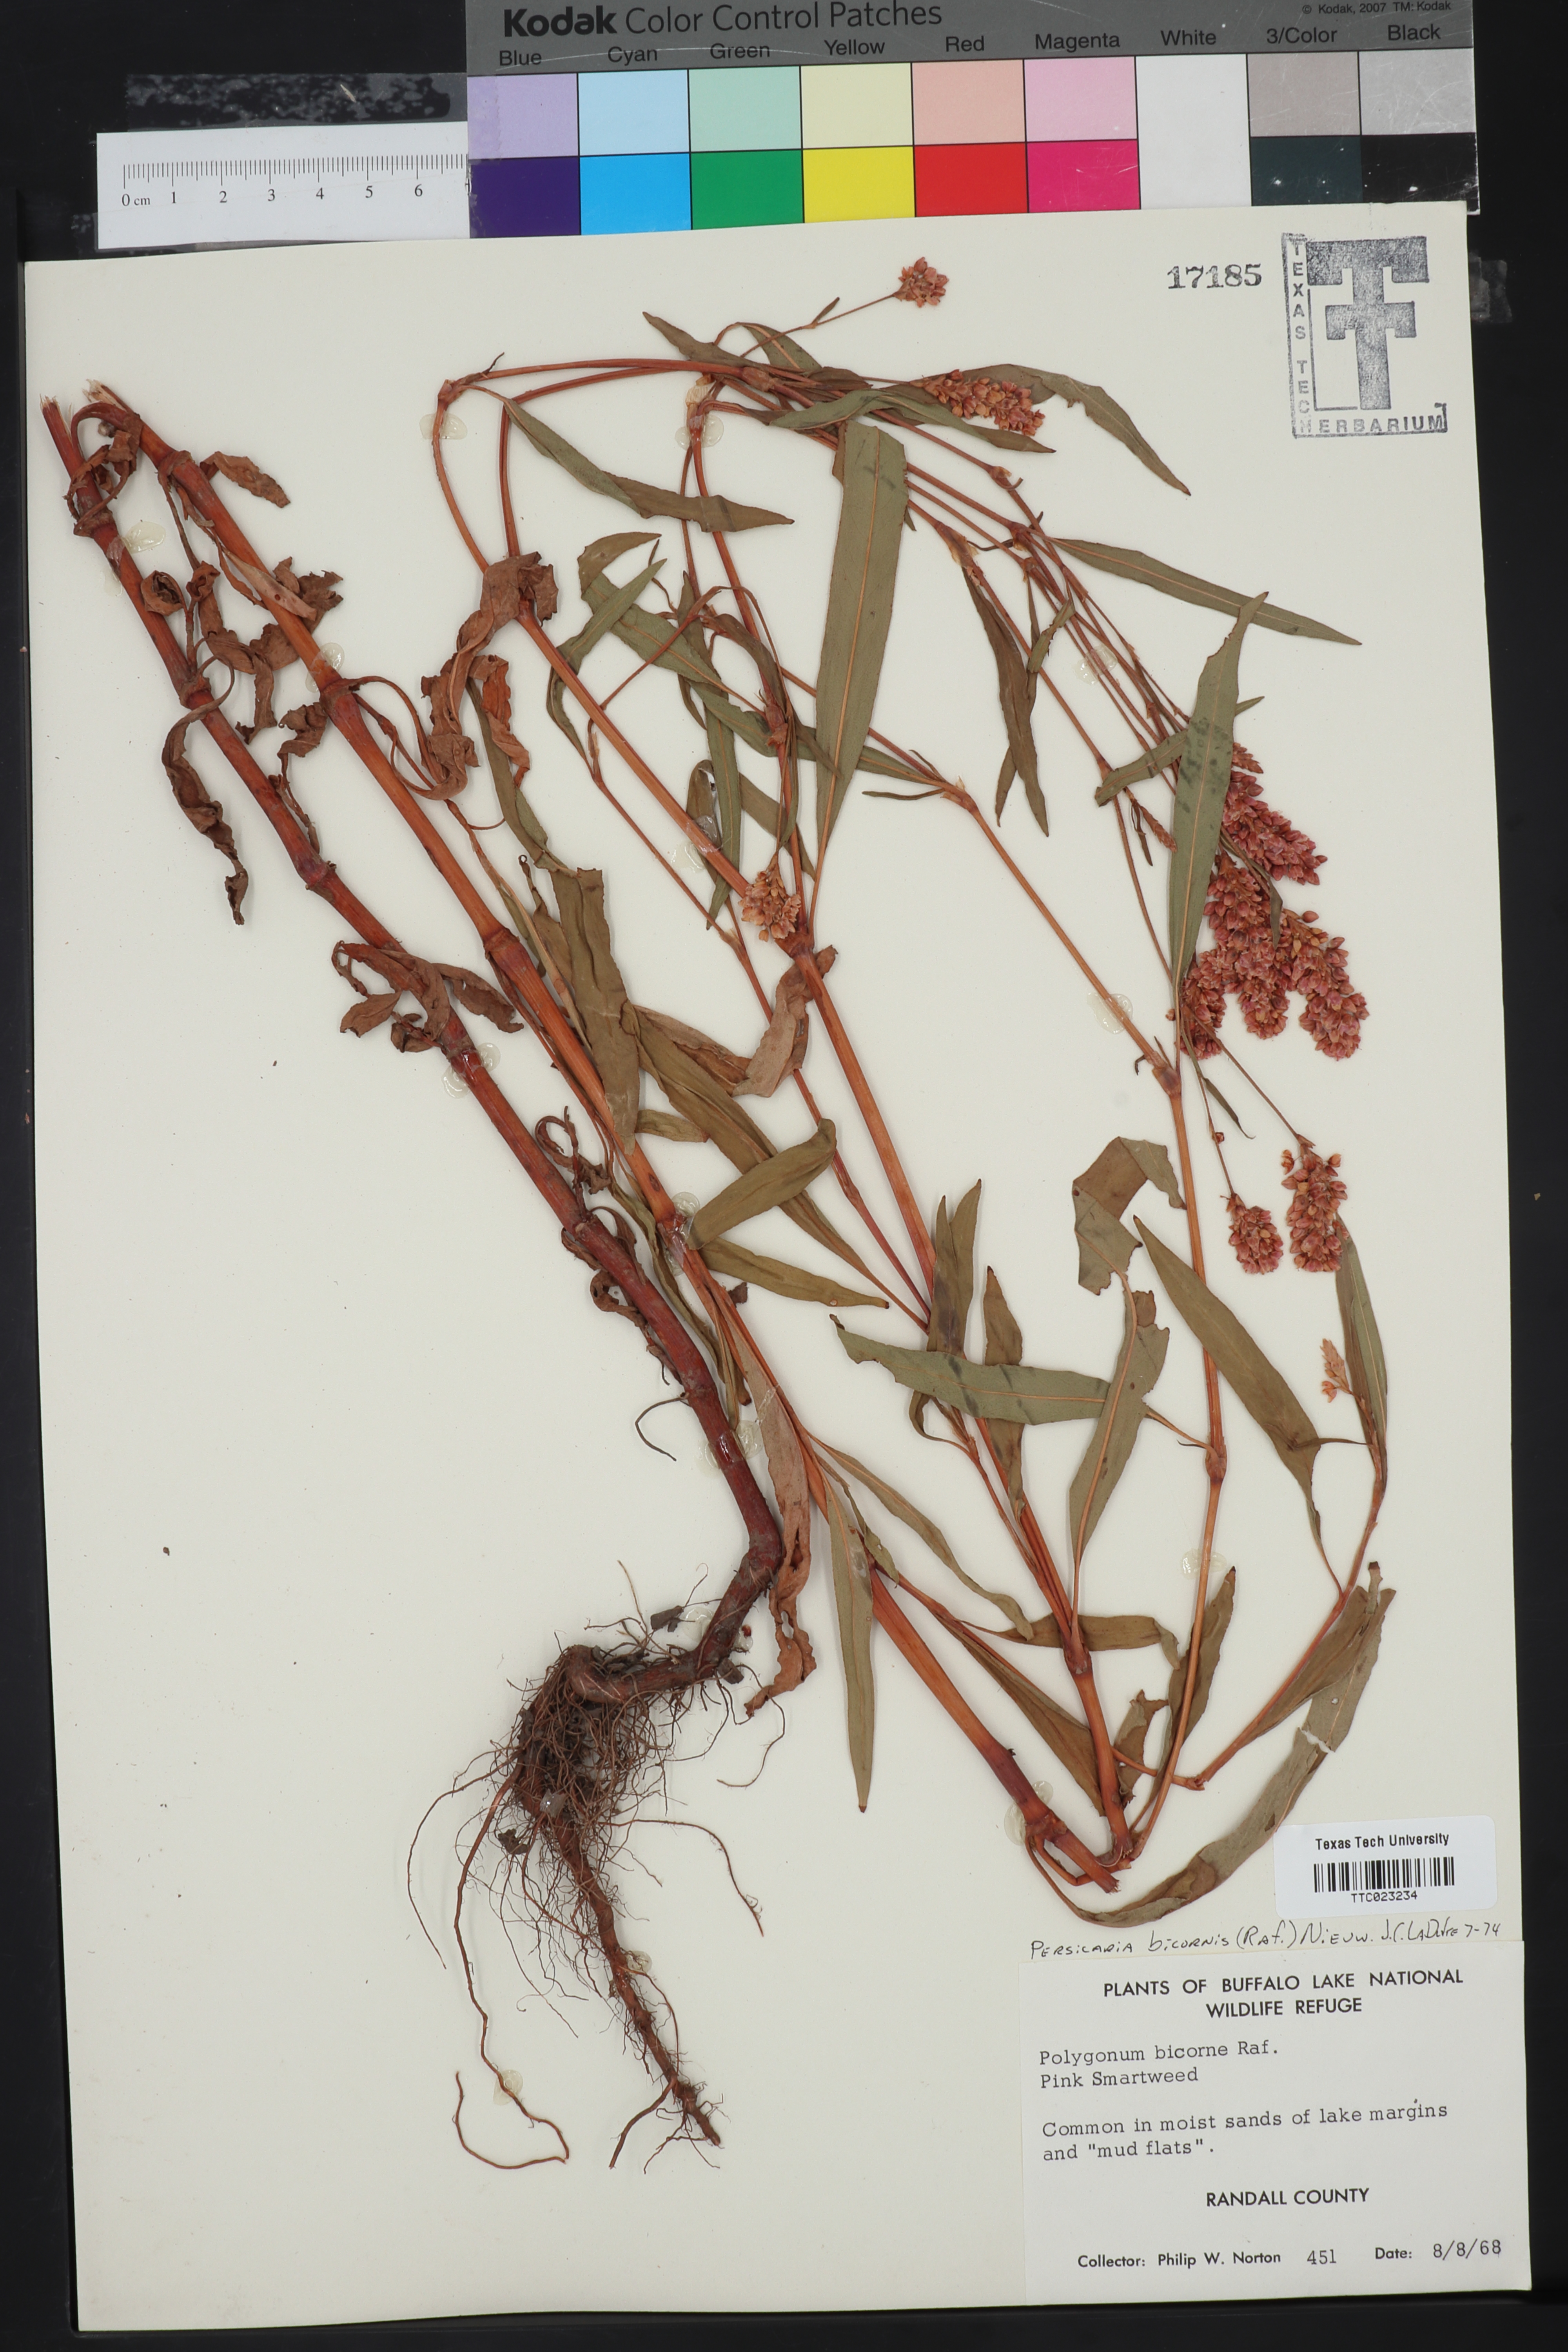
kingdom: Plantae
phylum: Tracheophyta
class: Magnoliopsida
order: Caryophyllales
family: Polygonaceae
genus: Persicaria
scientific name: Persicaria bicornis
